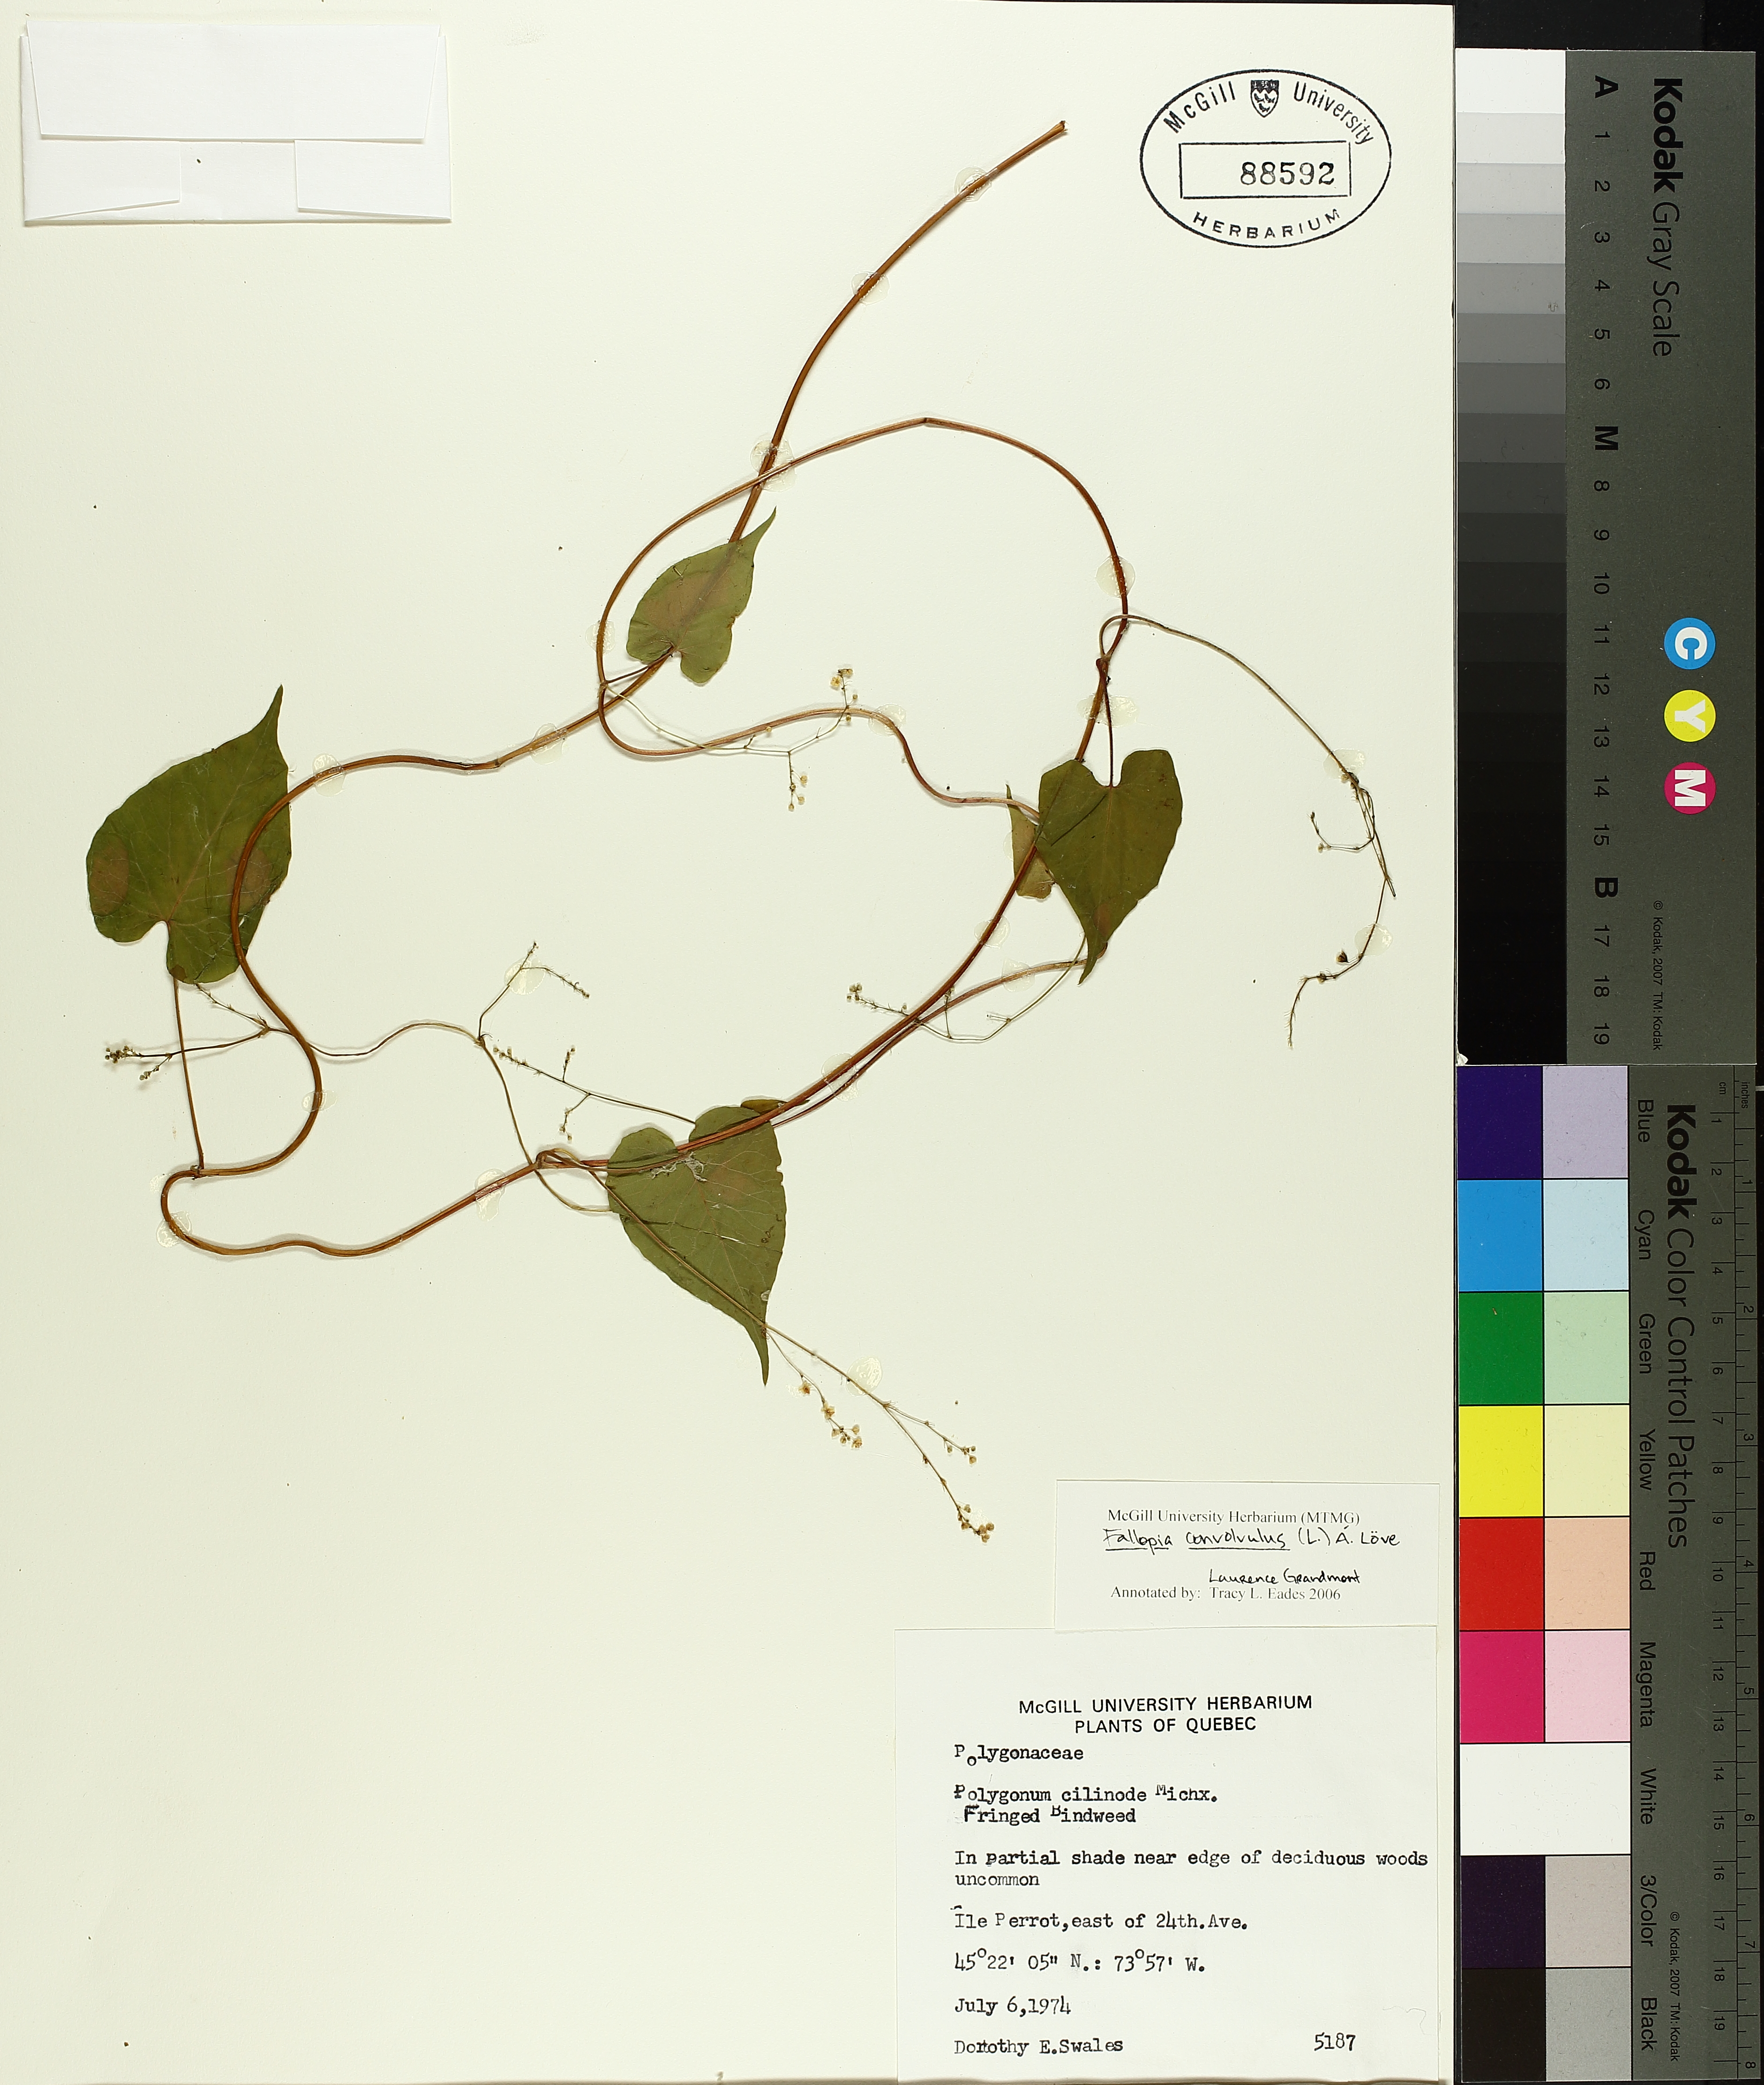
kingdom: Plantae
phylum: Tracheophyta
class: Magnoliopsida
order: Caryophyllales
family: Polygonaceae
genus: Parogonum
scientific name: Parogonum ciliinode
